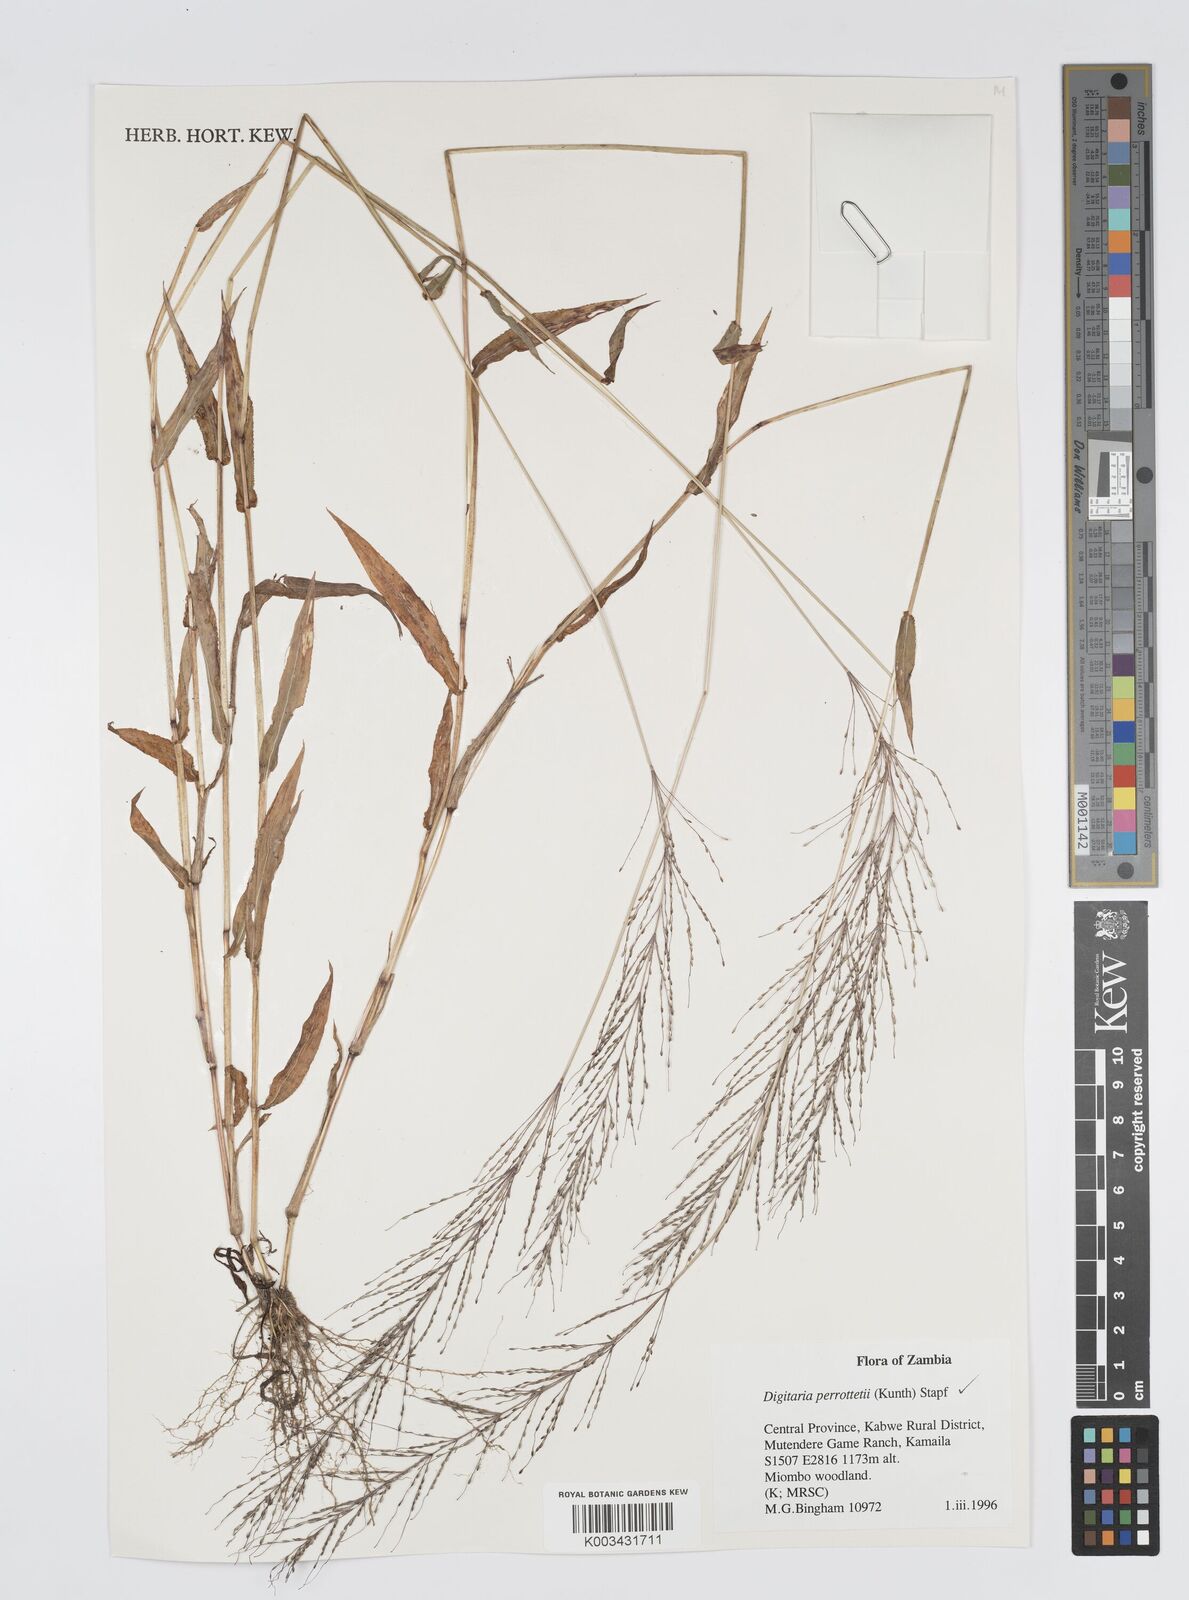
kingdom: Plantae
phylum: Tracheophyta
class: Liliopsida
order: Poales
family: Poaceae
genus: Digitaria
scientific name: Digitaria perrottetii
